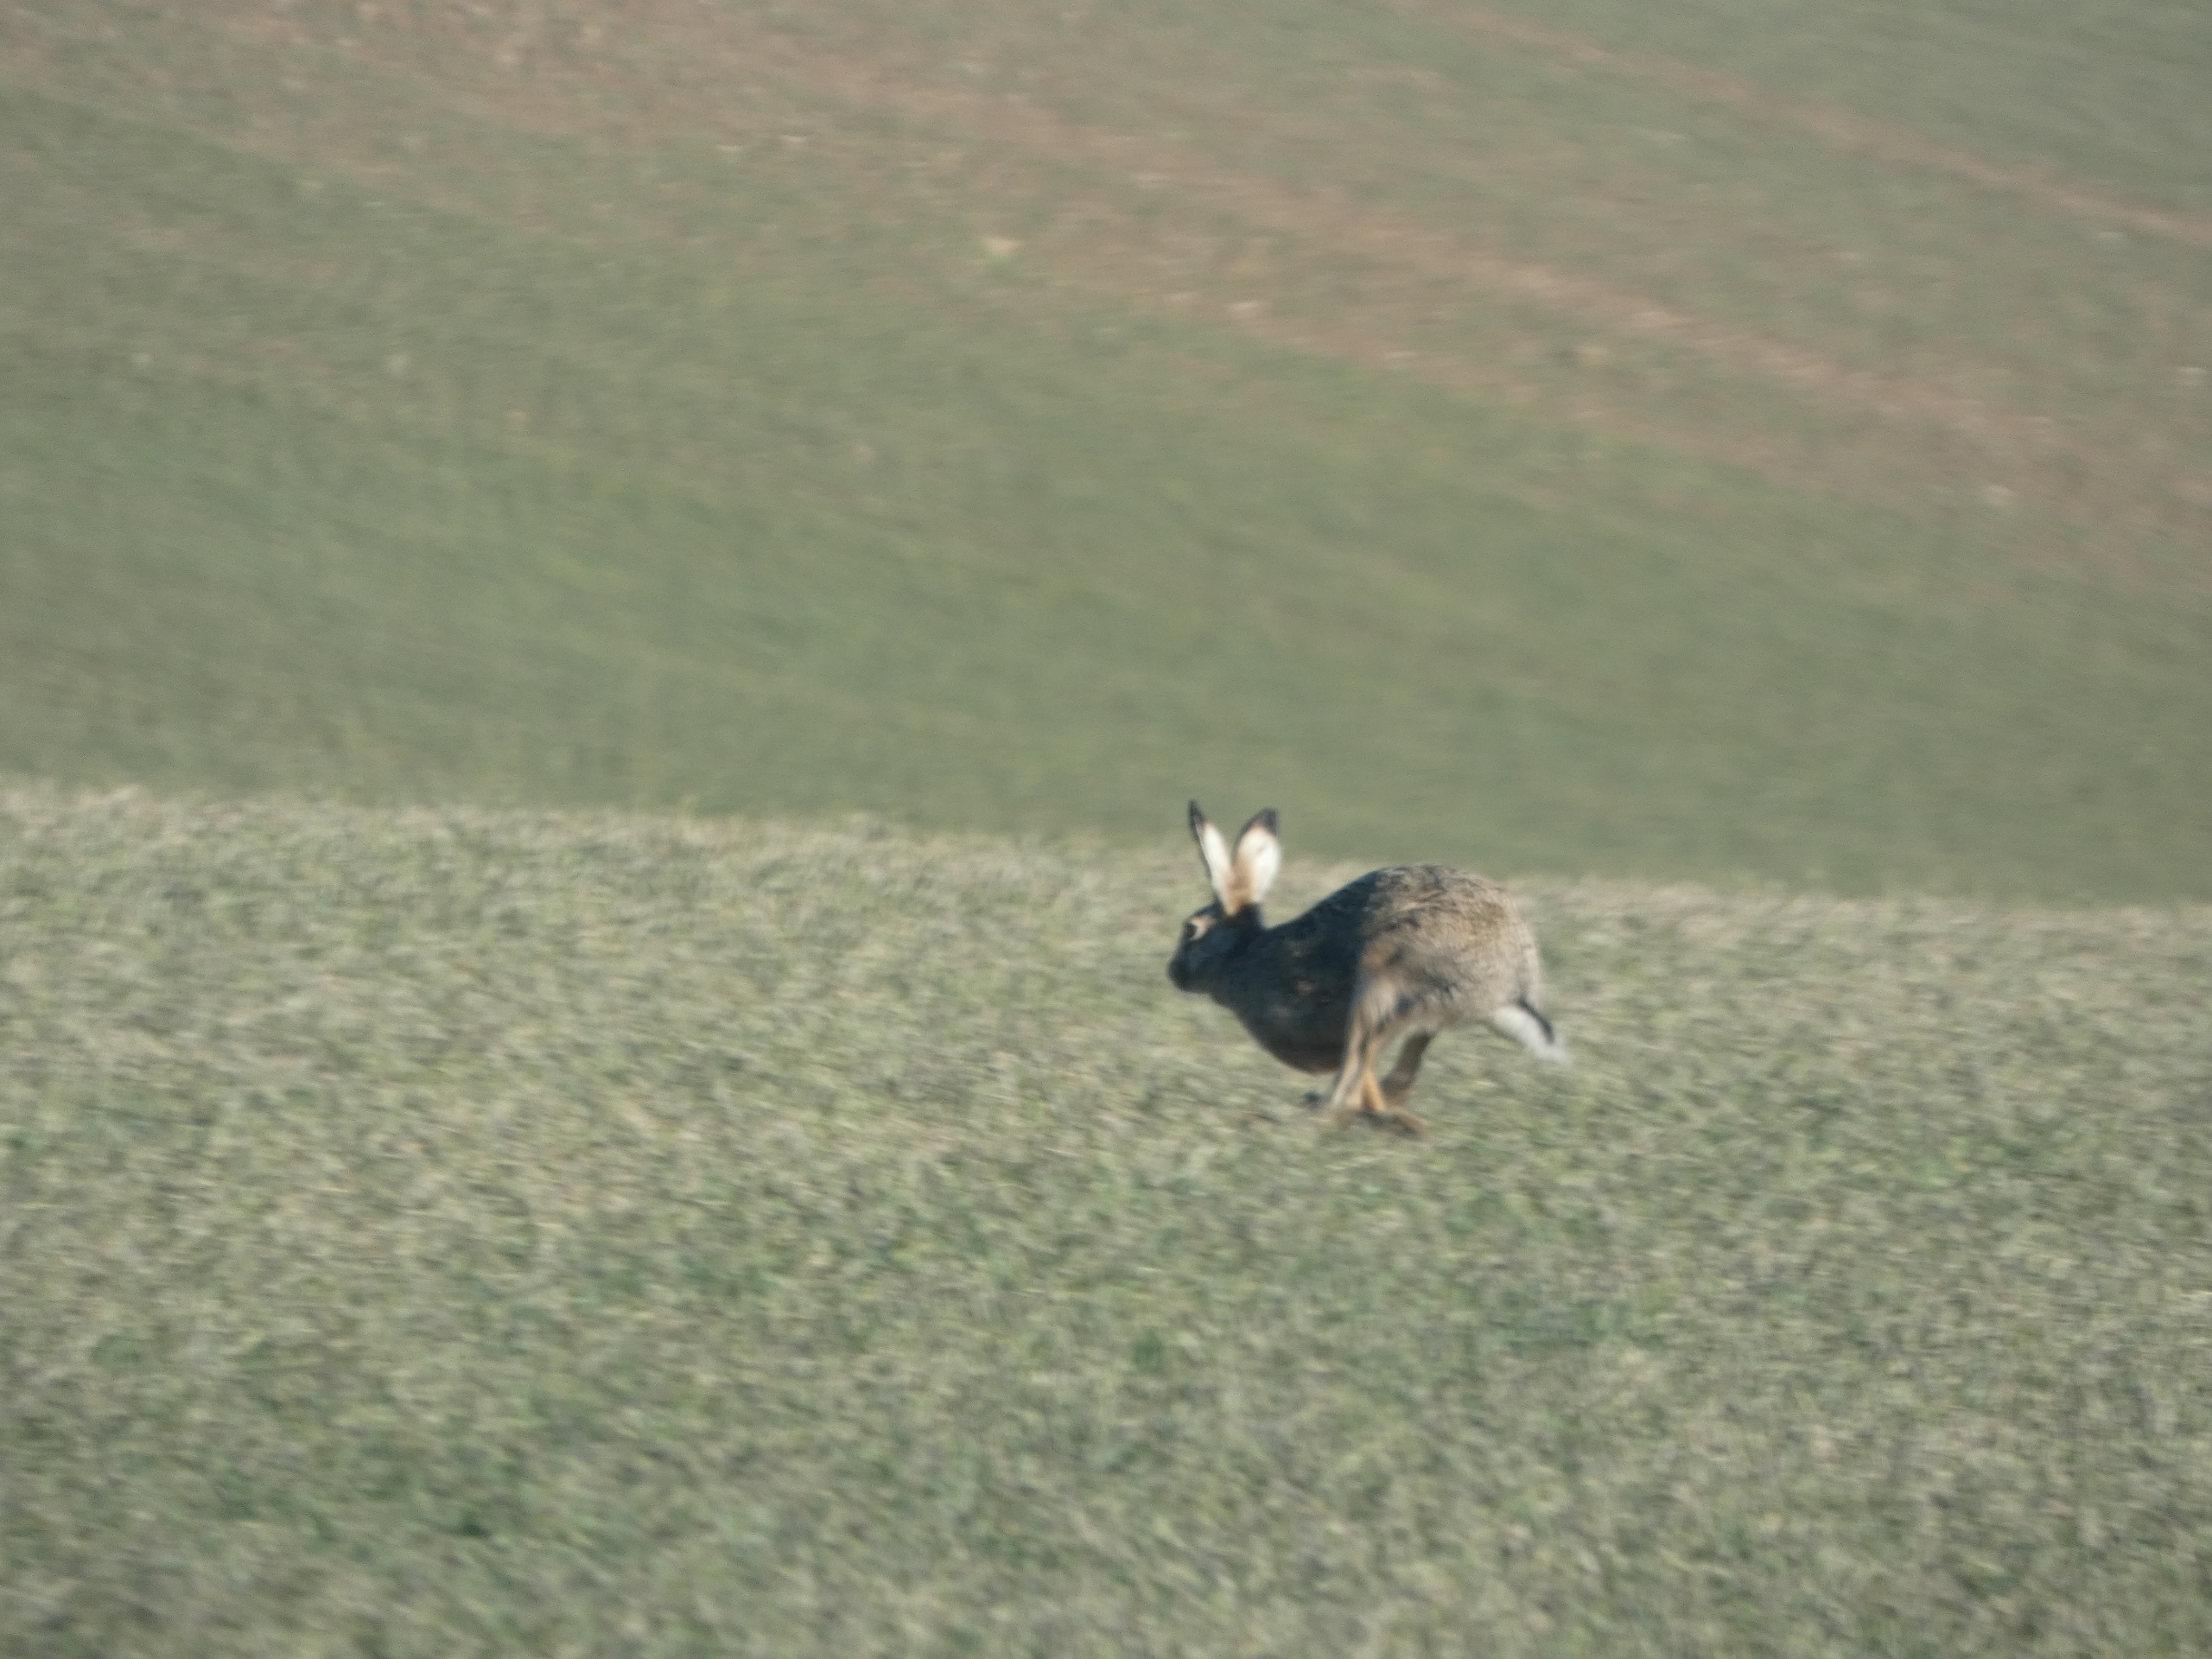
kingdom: Animalia
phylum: Chordata
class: Mammalia
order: Lagomorpha
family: Leporidae
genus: Lepus
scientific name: Lepus europaeus
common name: Hare
